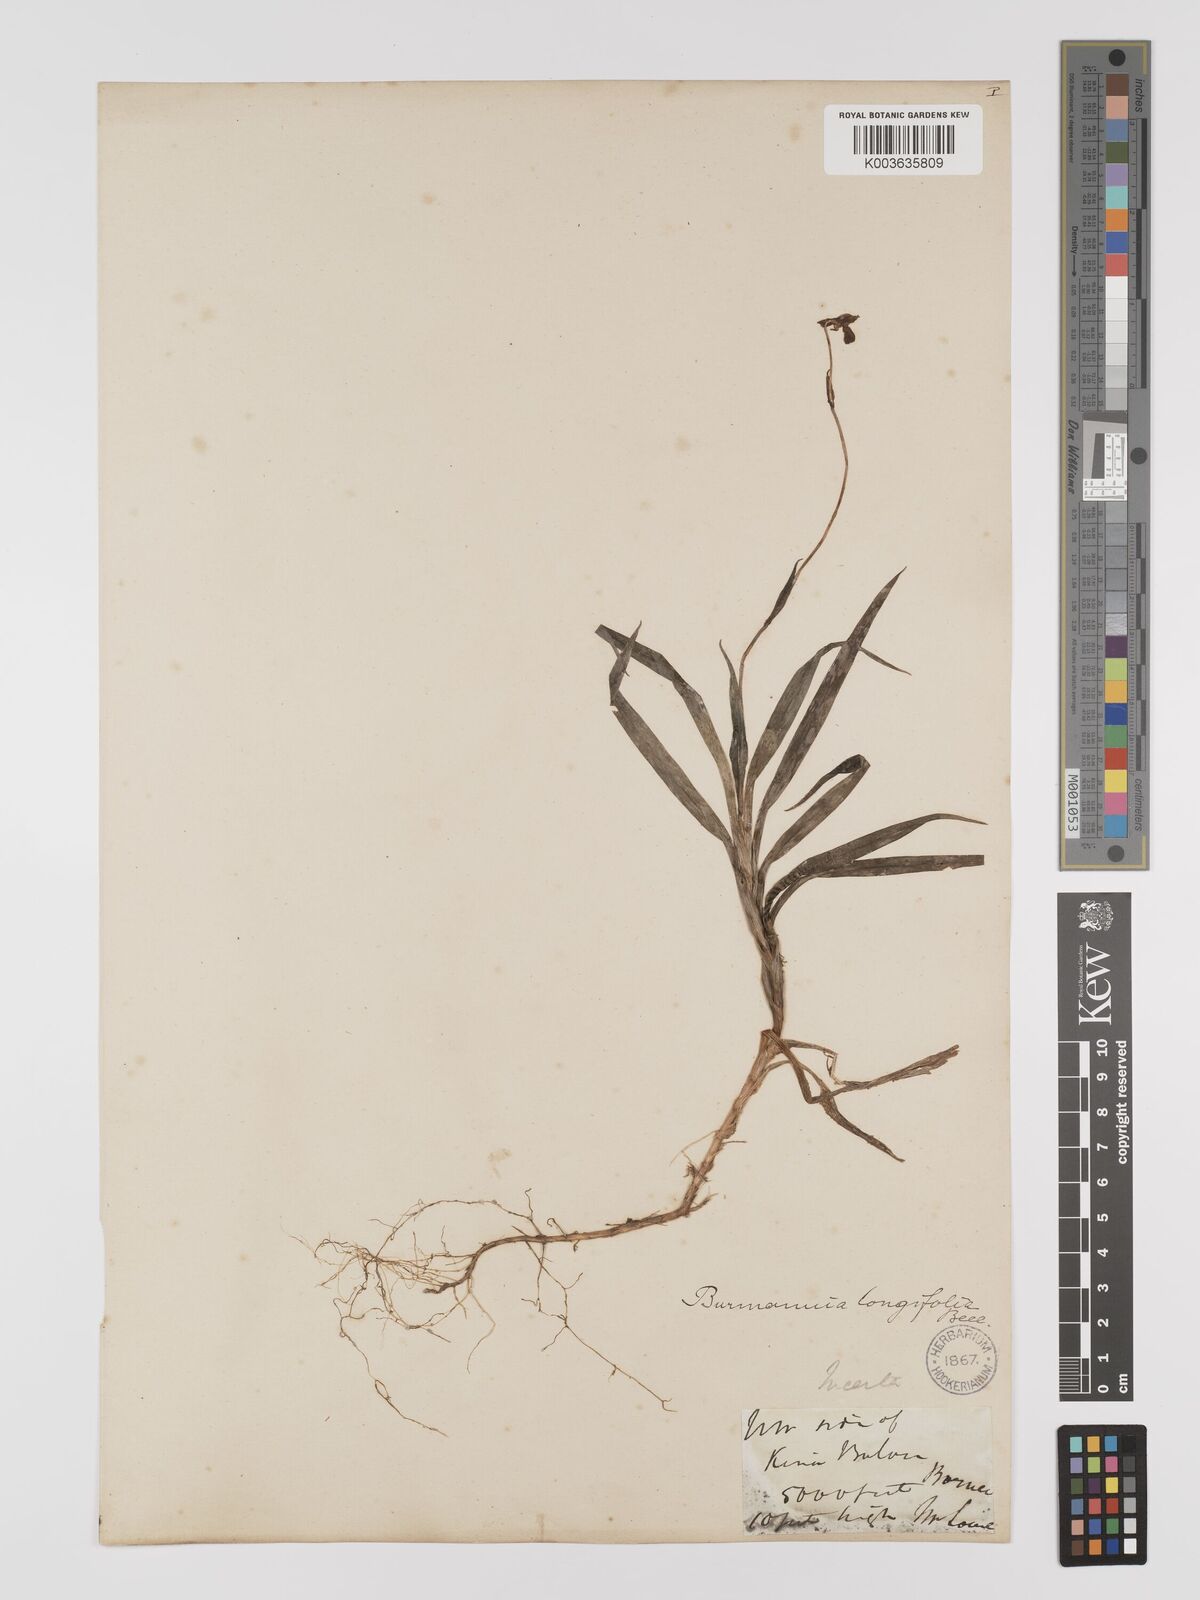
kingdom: Plantae
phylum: Tracheophyta
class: Liliopsida
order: Dioscoreales
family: Burmanniaceae
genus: Burmannia
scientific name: Burmannia longifolia
